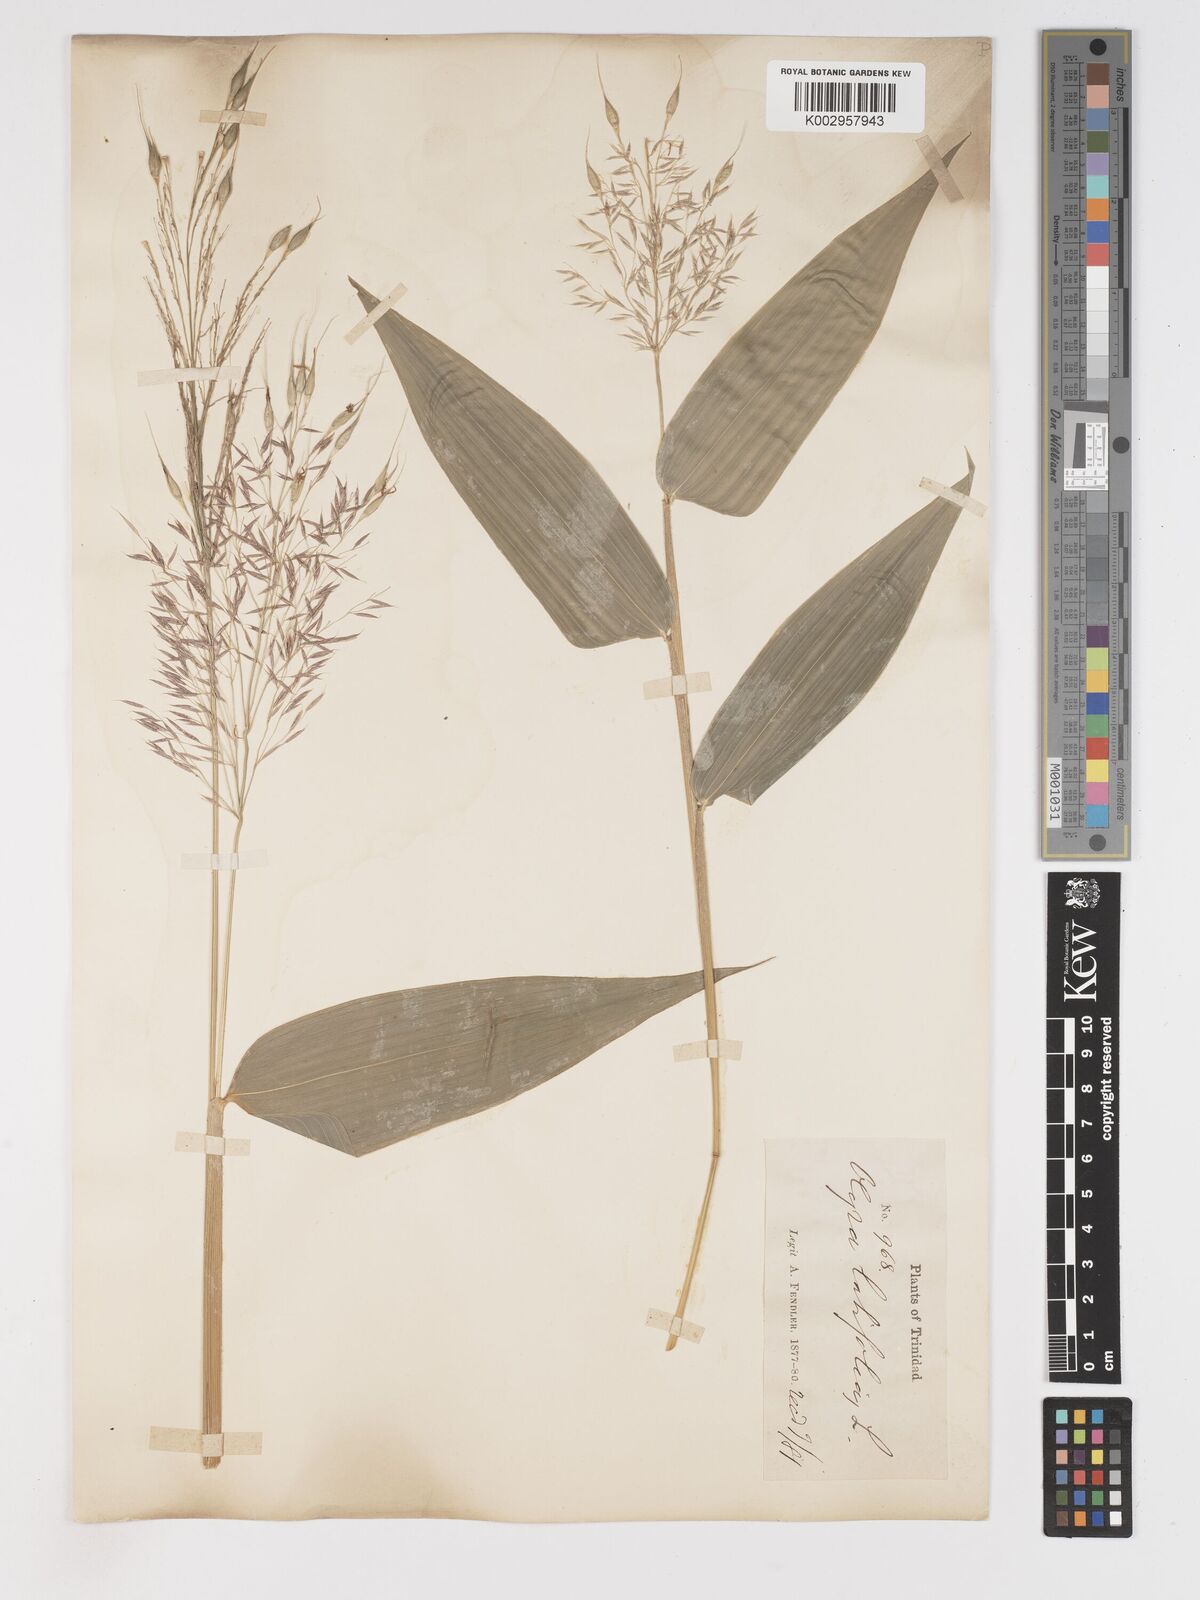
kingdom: Plantae
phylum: Tracheophyta
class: Liliopsida
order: Poales
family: Poaceae
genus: Olyra
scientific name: Olyra ciliatifolia
